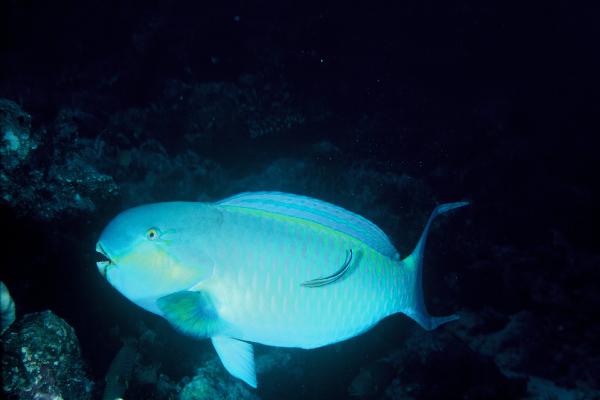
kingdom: Animalia
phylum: Chordata
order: Perciformes
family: Scaridae
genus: Chlorurus
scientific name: Chlorurus strongylocephalus
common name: Steephead parrotfish
